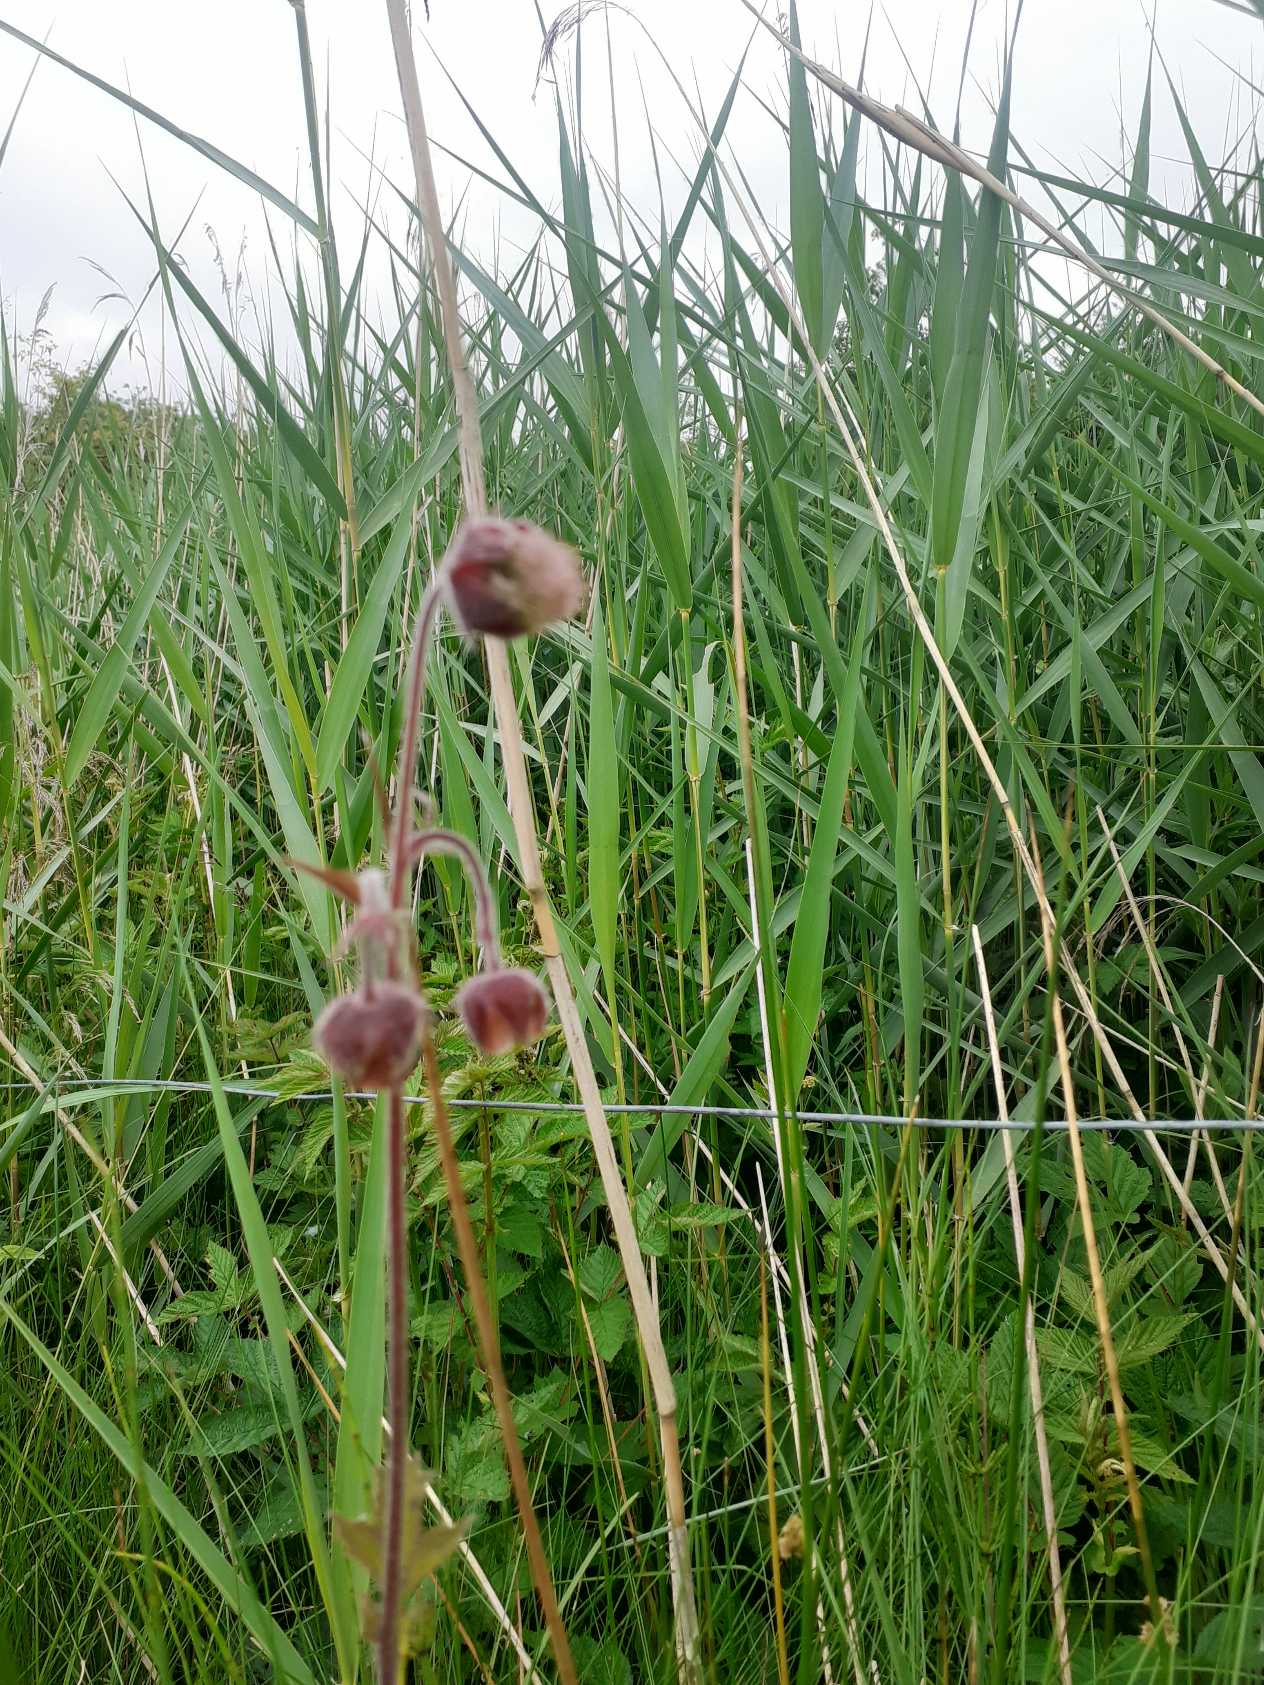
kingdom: Plantae
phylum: Tracheophyta
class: Magnoliopsida
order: Rosales
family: Rosaceae
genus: Geum
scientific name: Geum rivale
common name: Eng-nellikerod
